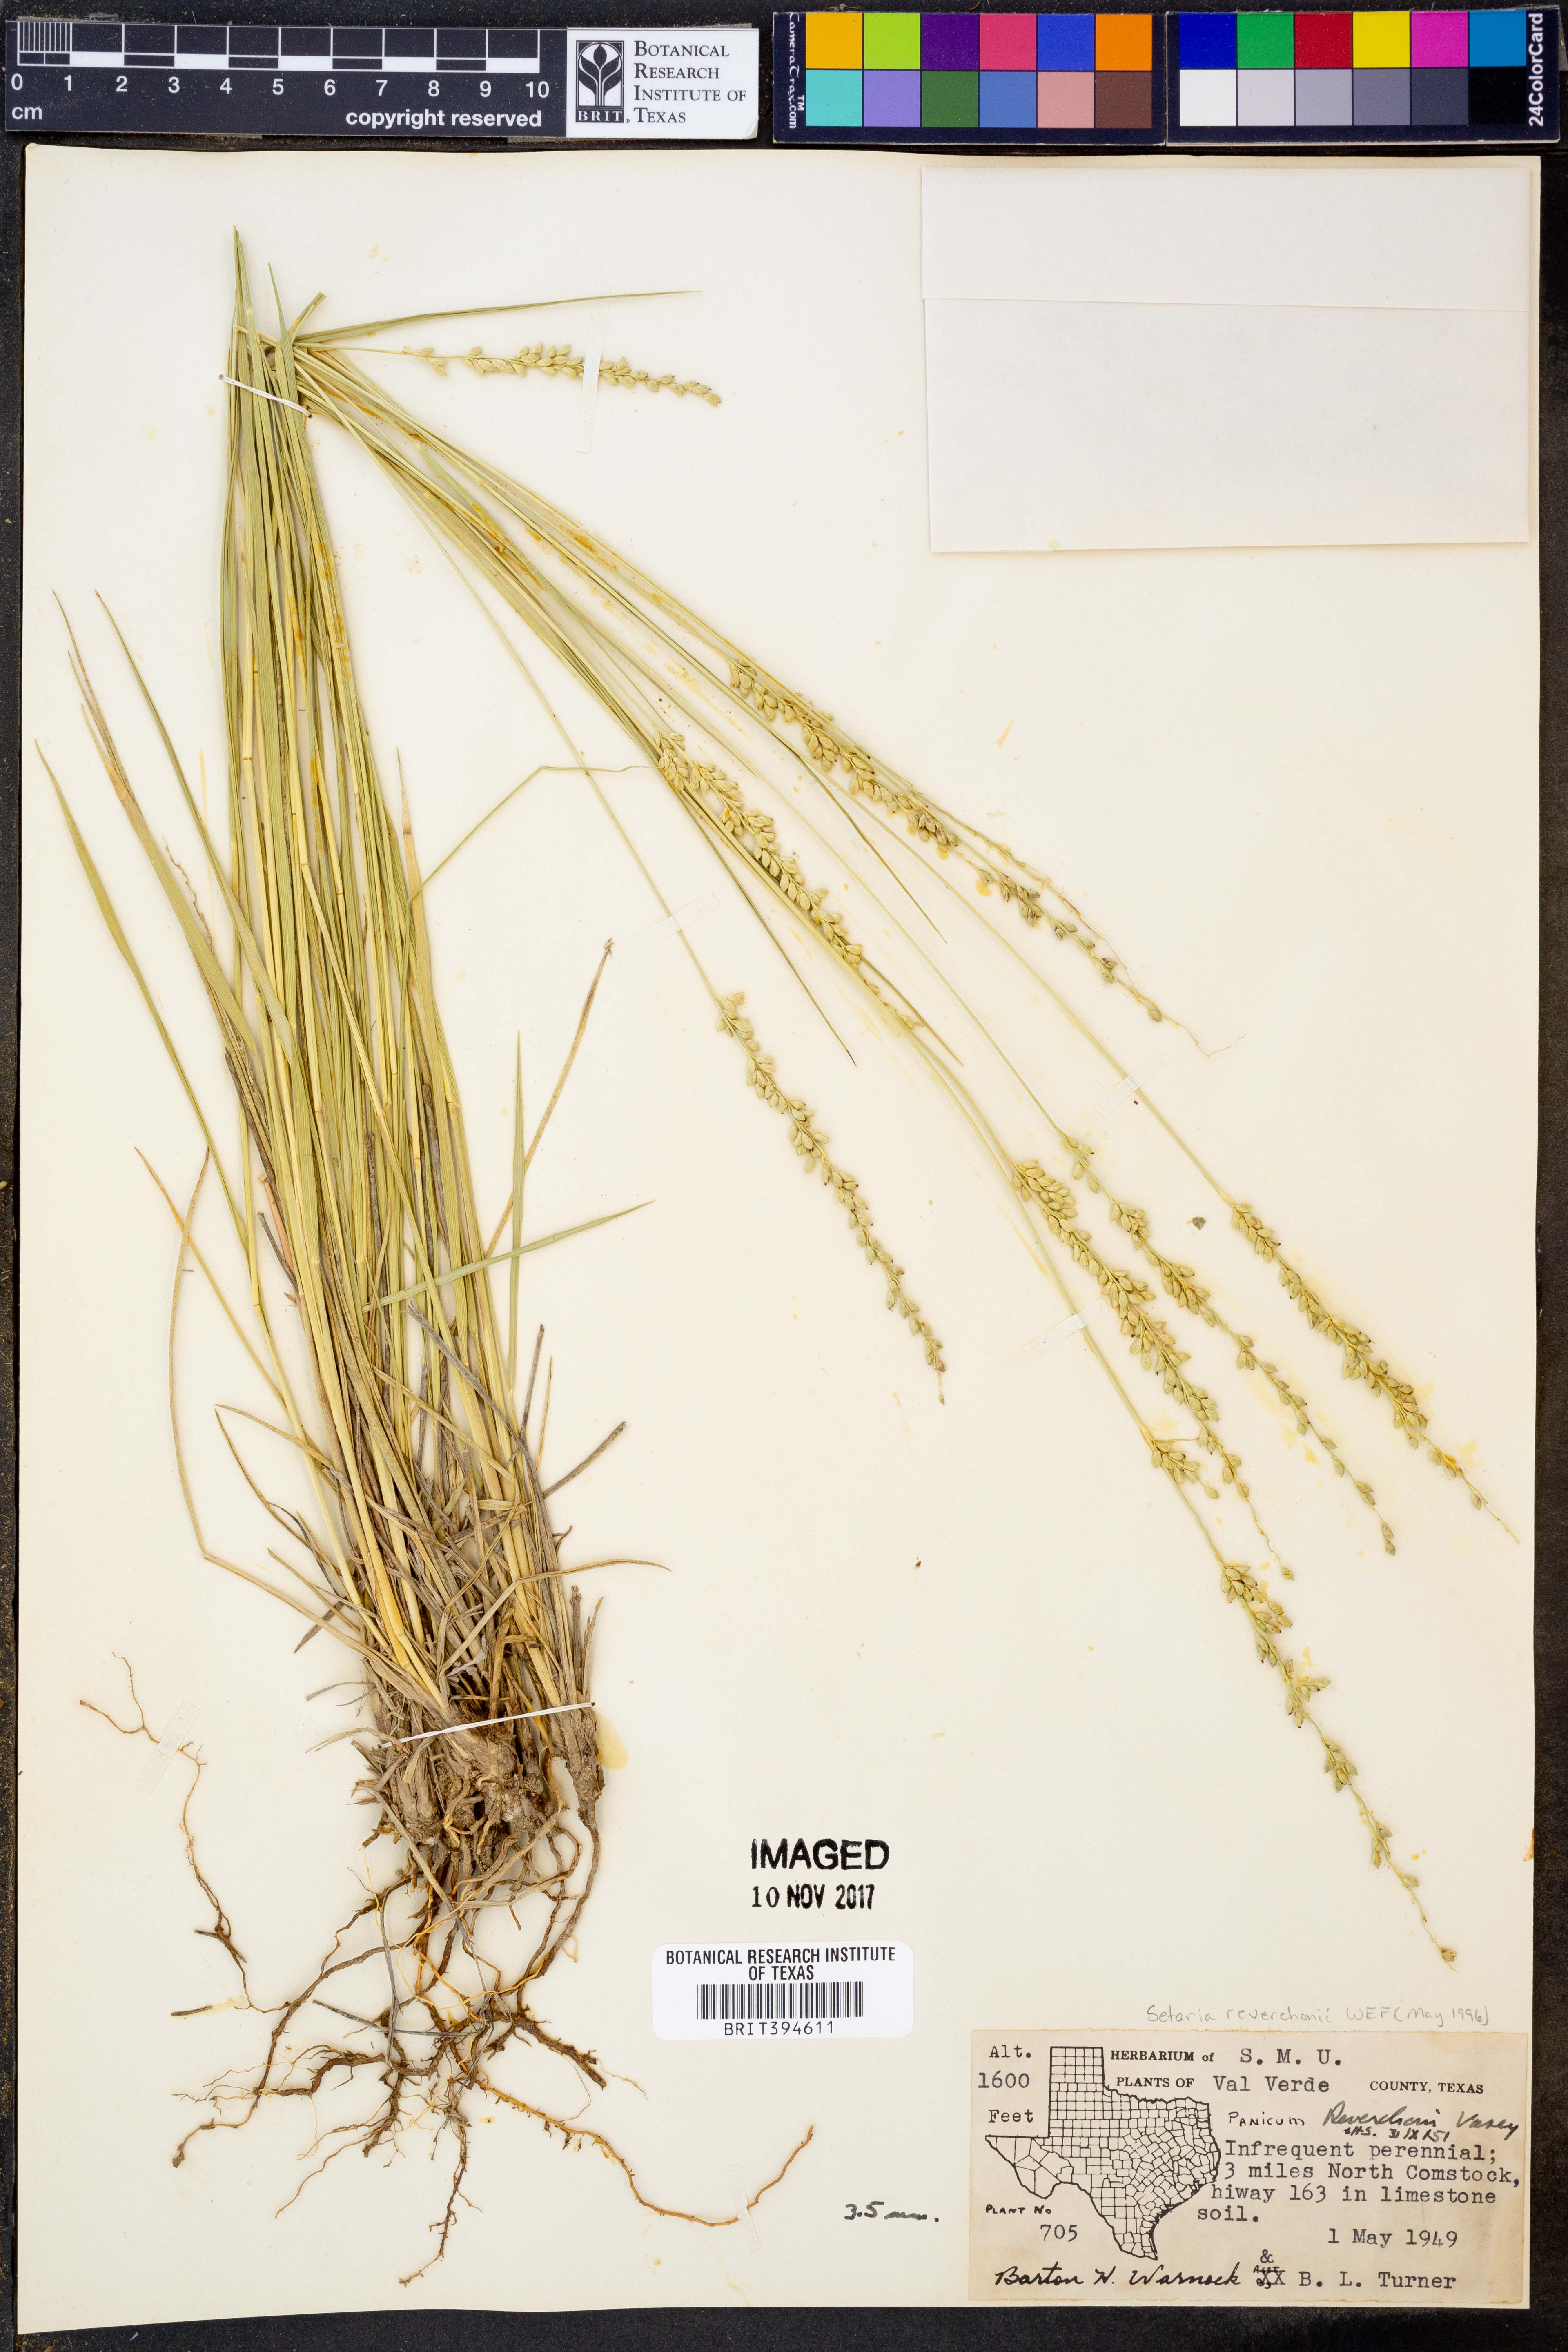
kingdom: Plantae
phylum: Tracheophyta
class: Liliopsida
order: Poales
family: Poaceae
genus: Setaria
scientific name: Setaria reverchonii
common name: Reverchon's bristle grass
